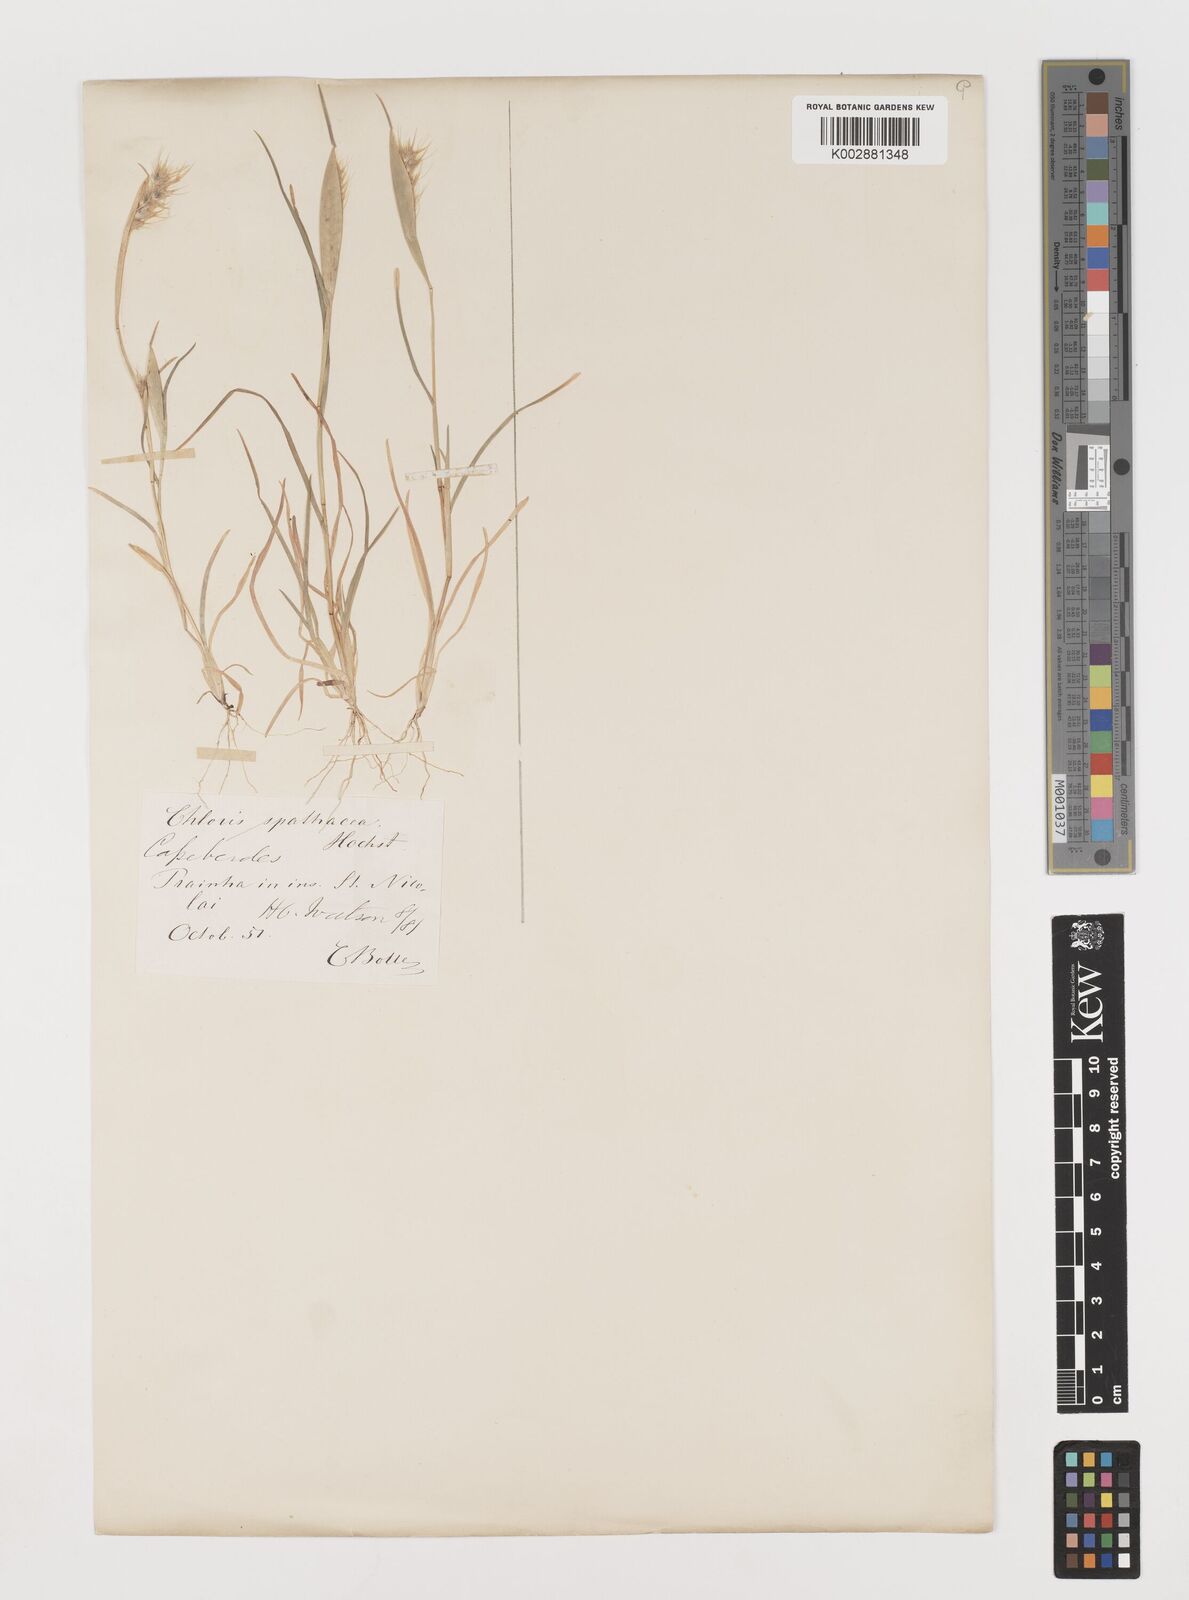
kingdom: Plantae
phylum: Tracheophyta
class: Liliopsida
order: Poales
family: Poaceae
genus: Tetrapogon
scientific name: Tetrapogon cenchriformis
